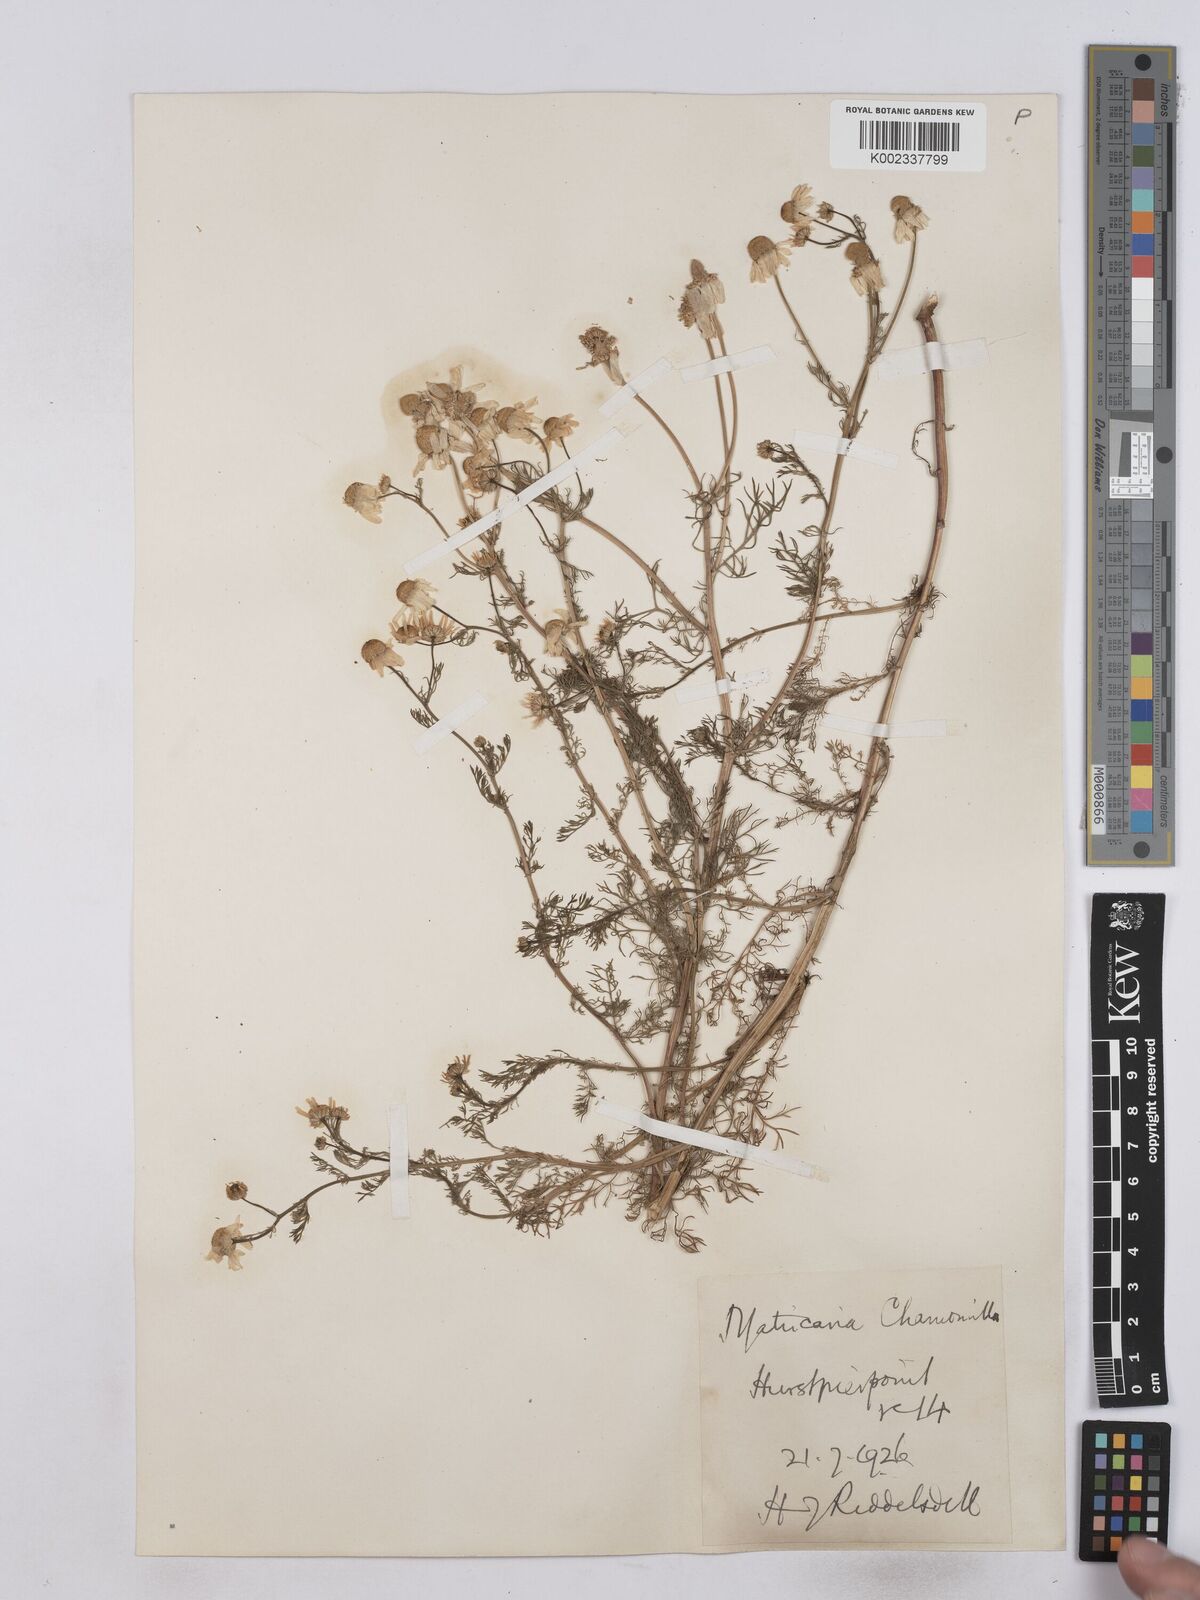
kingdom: Plantae
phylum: Tracheophyta
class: Magnoliopsida
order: Asterales
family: Asteraceae
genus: Matricaria
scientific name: Matricaria chamomilla
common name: Scented mayweed
